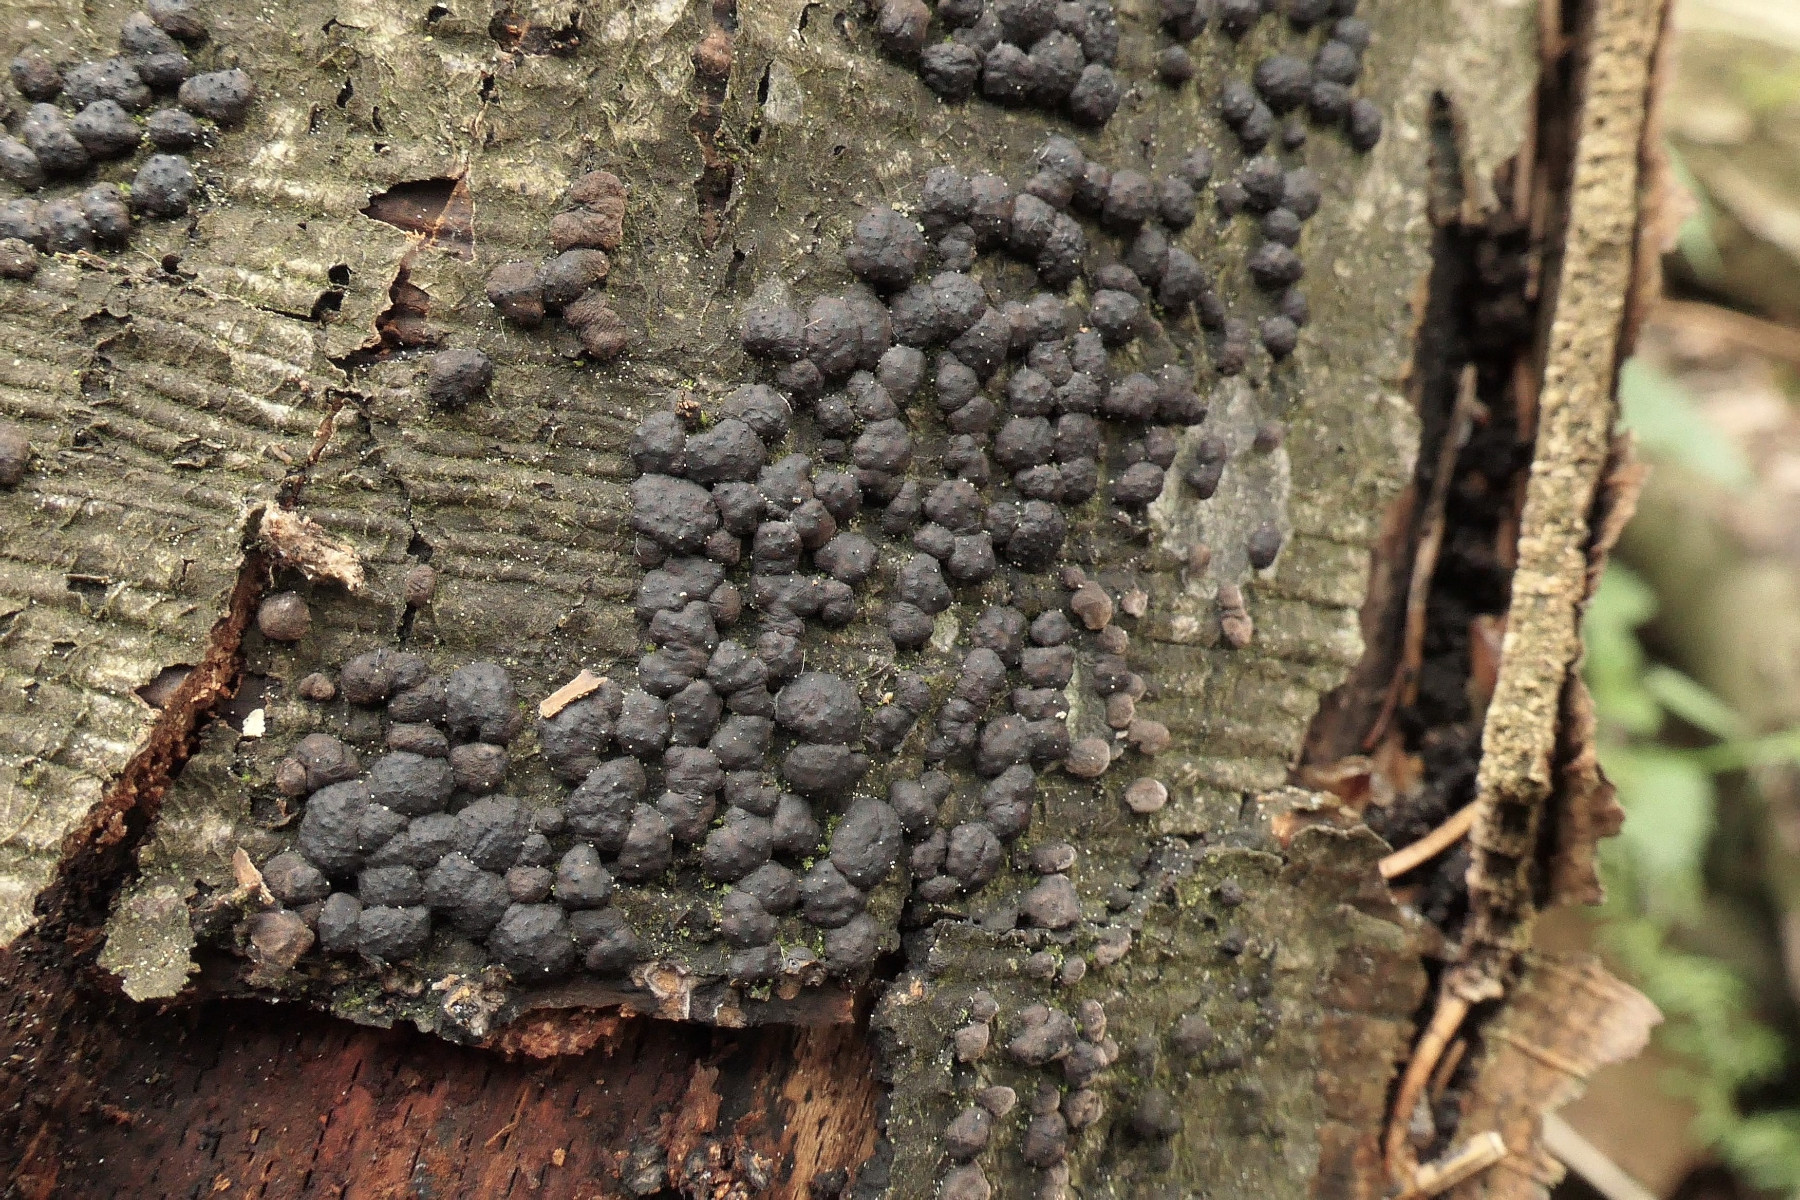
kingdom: Fungi
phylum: Ascomycota
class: Sordariomycetes
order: Xylariales
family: Hypoxylaceae
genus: Jackrogersella
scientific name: Jackrogersella cohaerens
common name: sammenflydende kulbær
